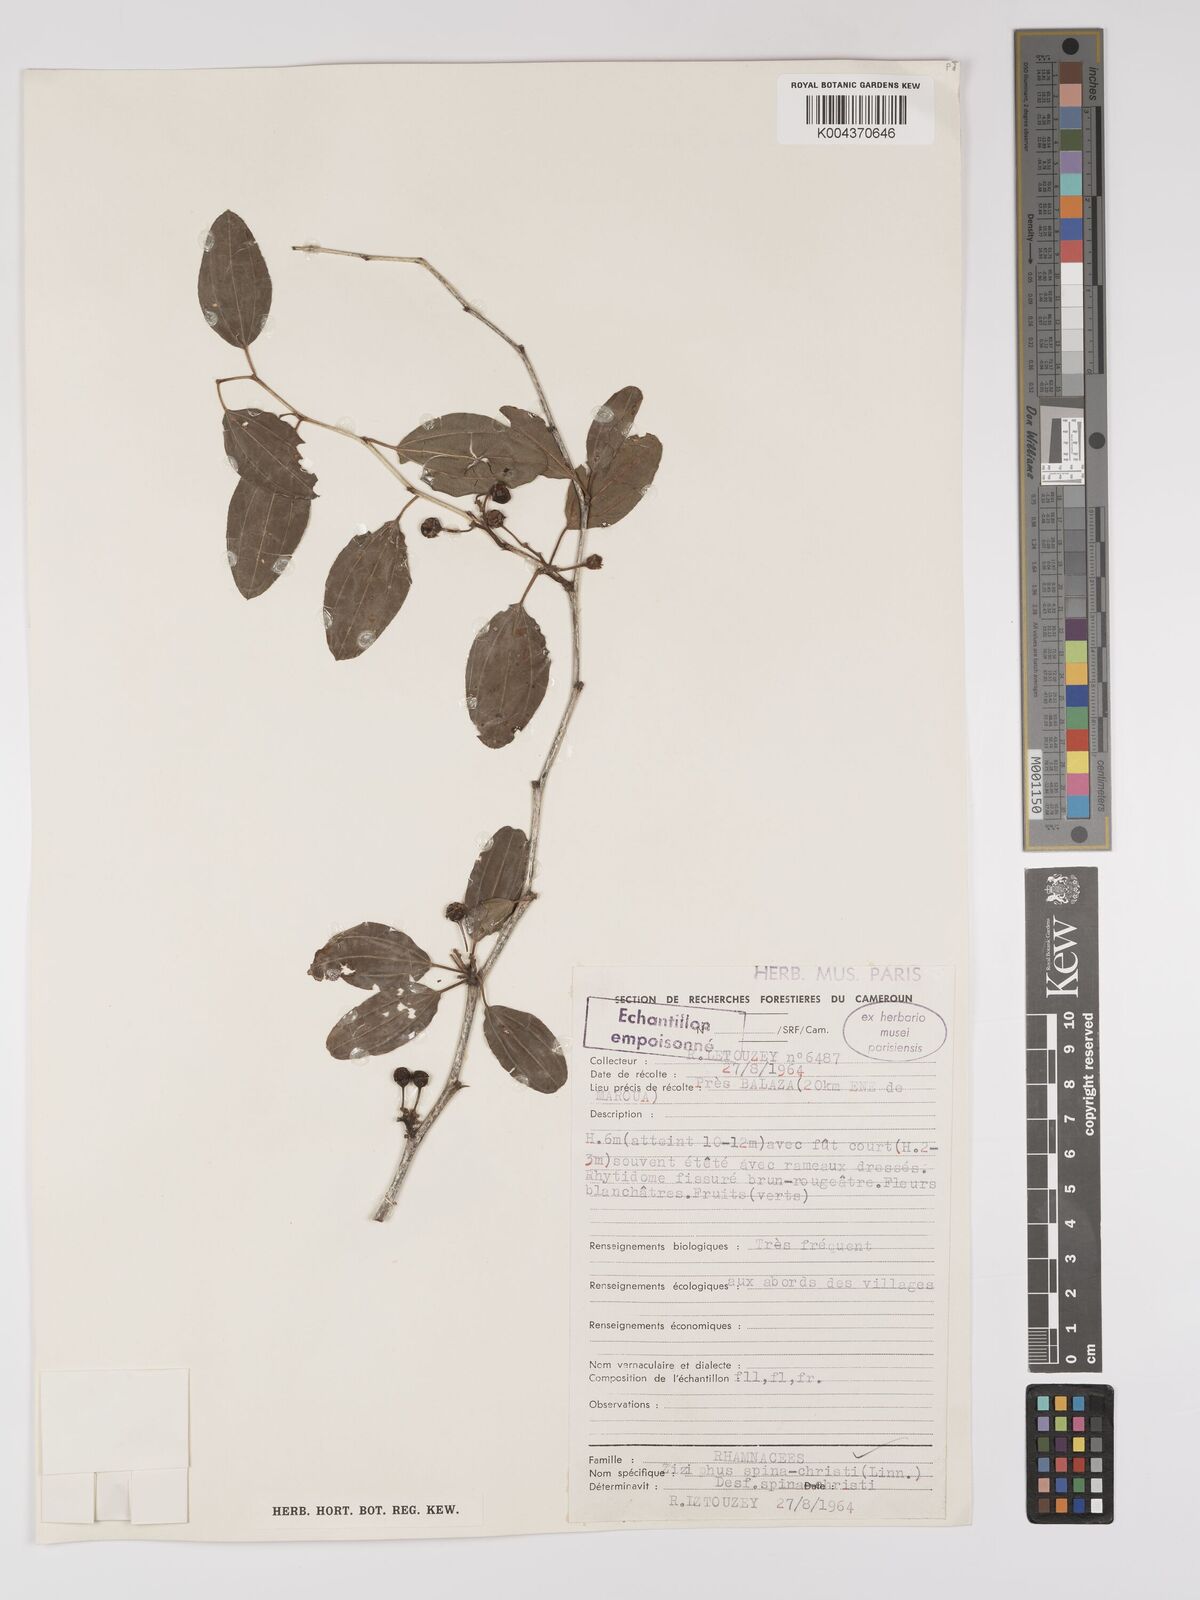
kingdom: Plantae
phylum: Tracheophyta
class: Magnoliopsida
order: Rosales
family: Rhamnaceae
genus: Ziziphus
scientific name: Ziziphus spina-christi
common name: Syrian christ-thorn
